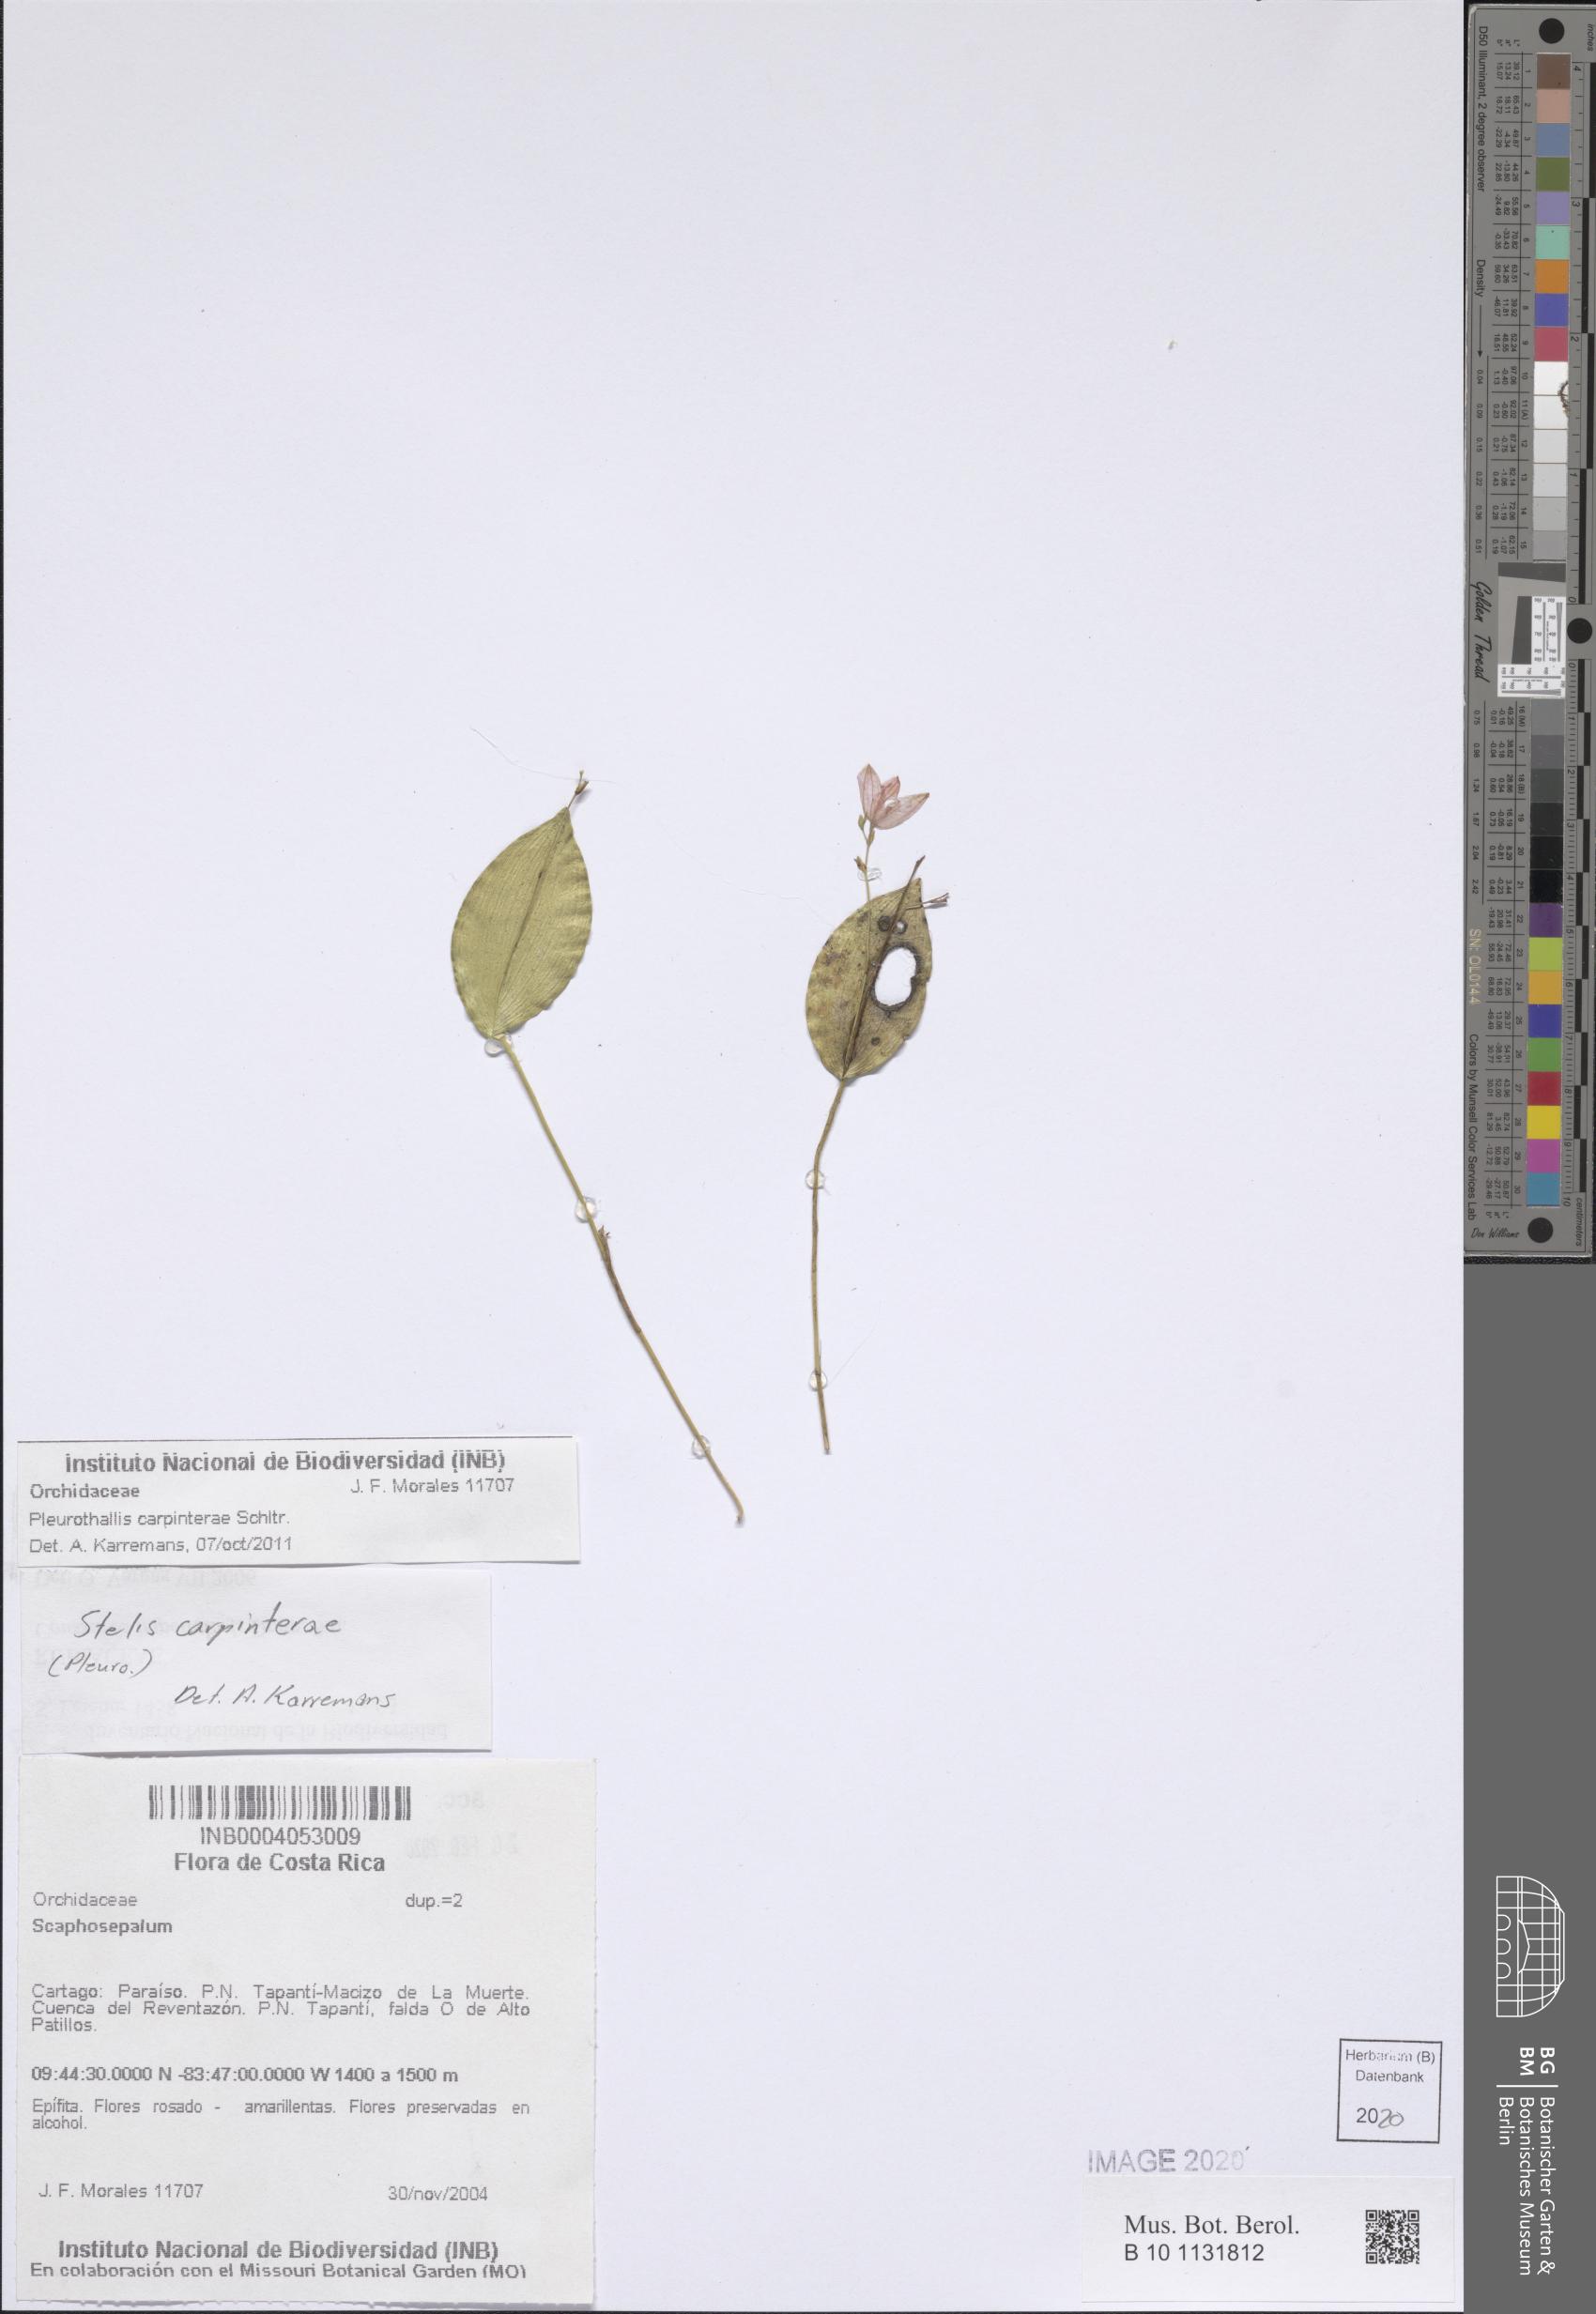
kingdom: Plantae
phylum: Tracheophyta
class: Liliopsida
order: Asparagales
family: Orchidaceae
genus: Stelis
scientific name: Stelis carpinterae
